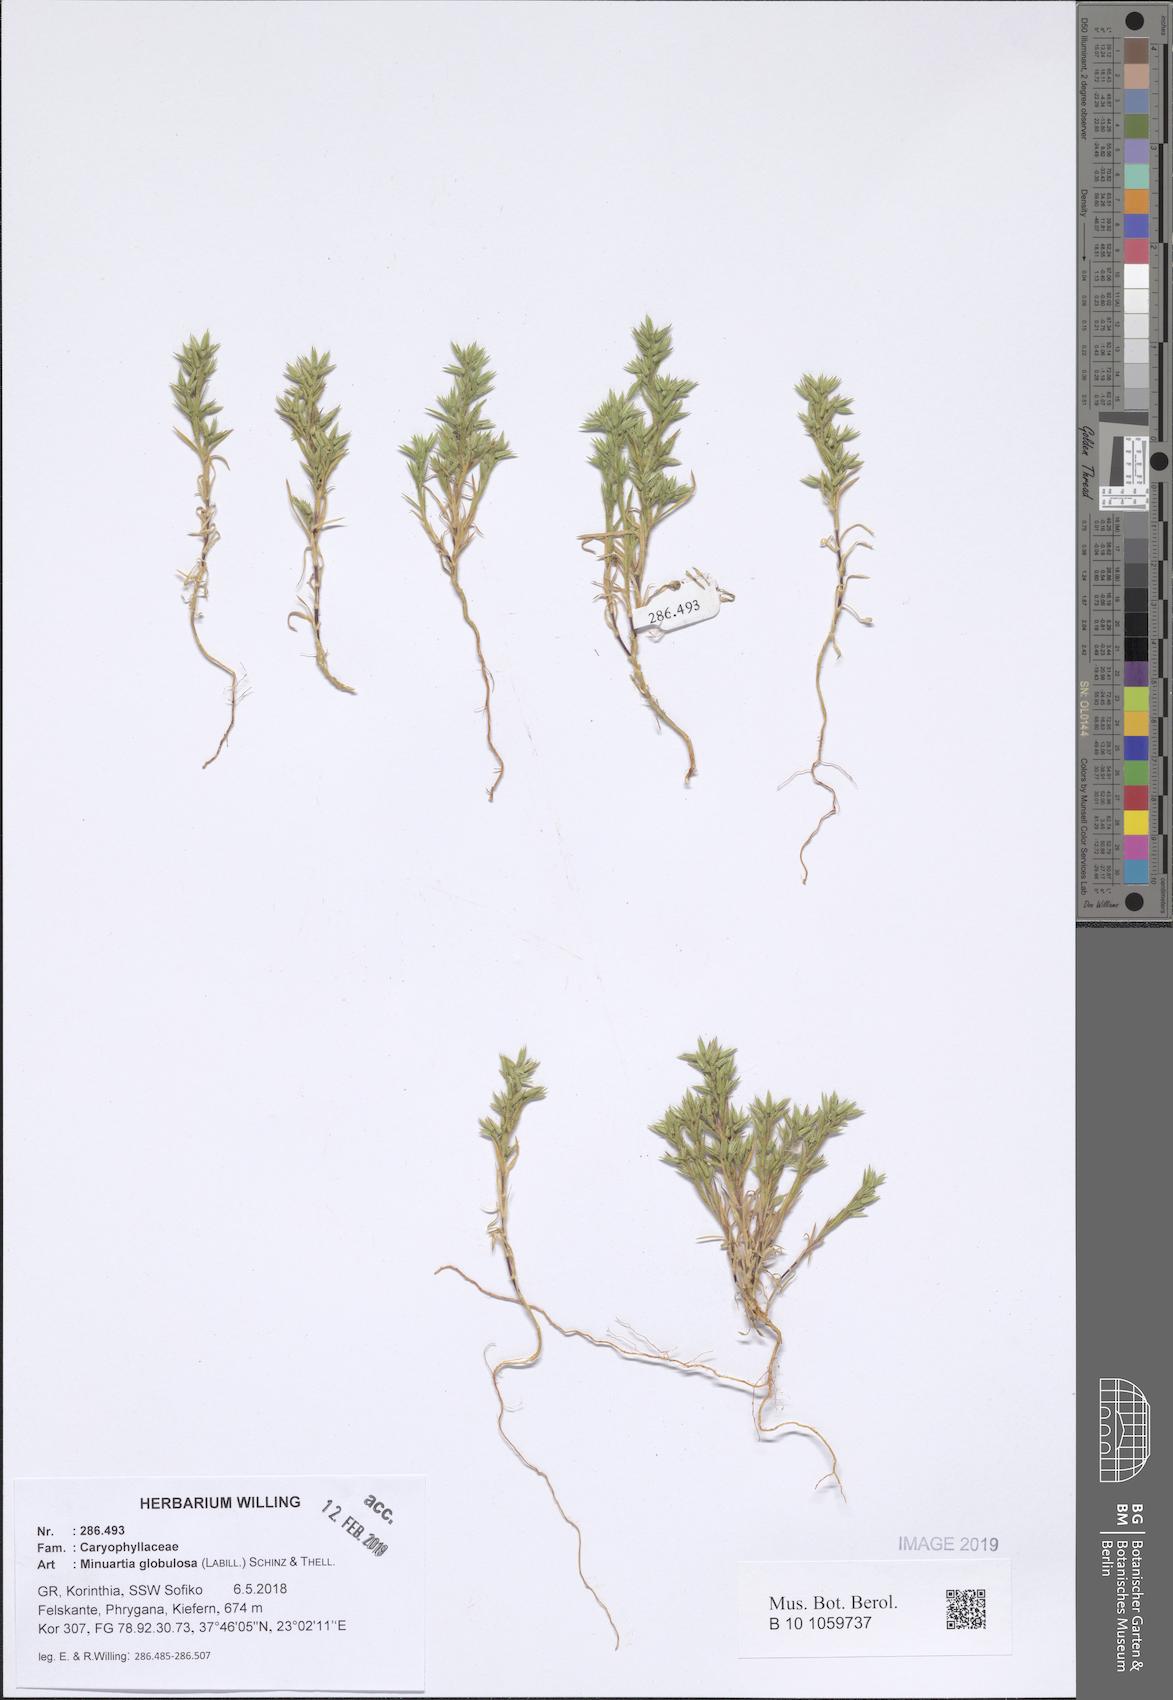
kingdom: Plantae
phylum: Tracheophyta
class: Magnoliopsida
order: Caryophyllales
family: Caryophyllaceae
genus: Minuartia
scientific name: Minuartia globulosa
